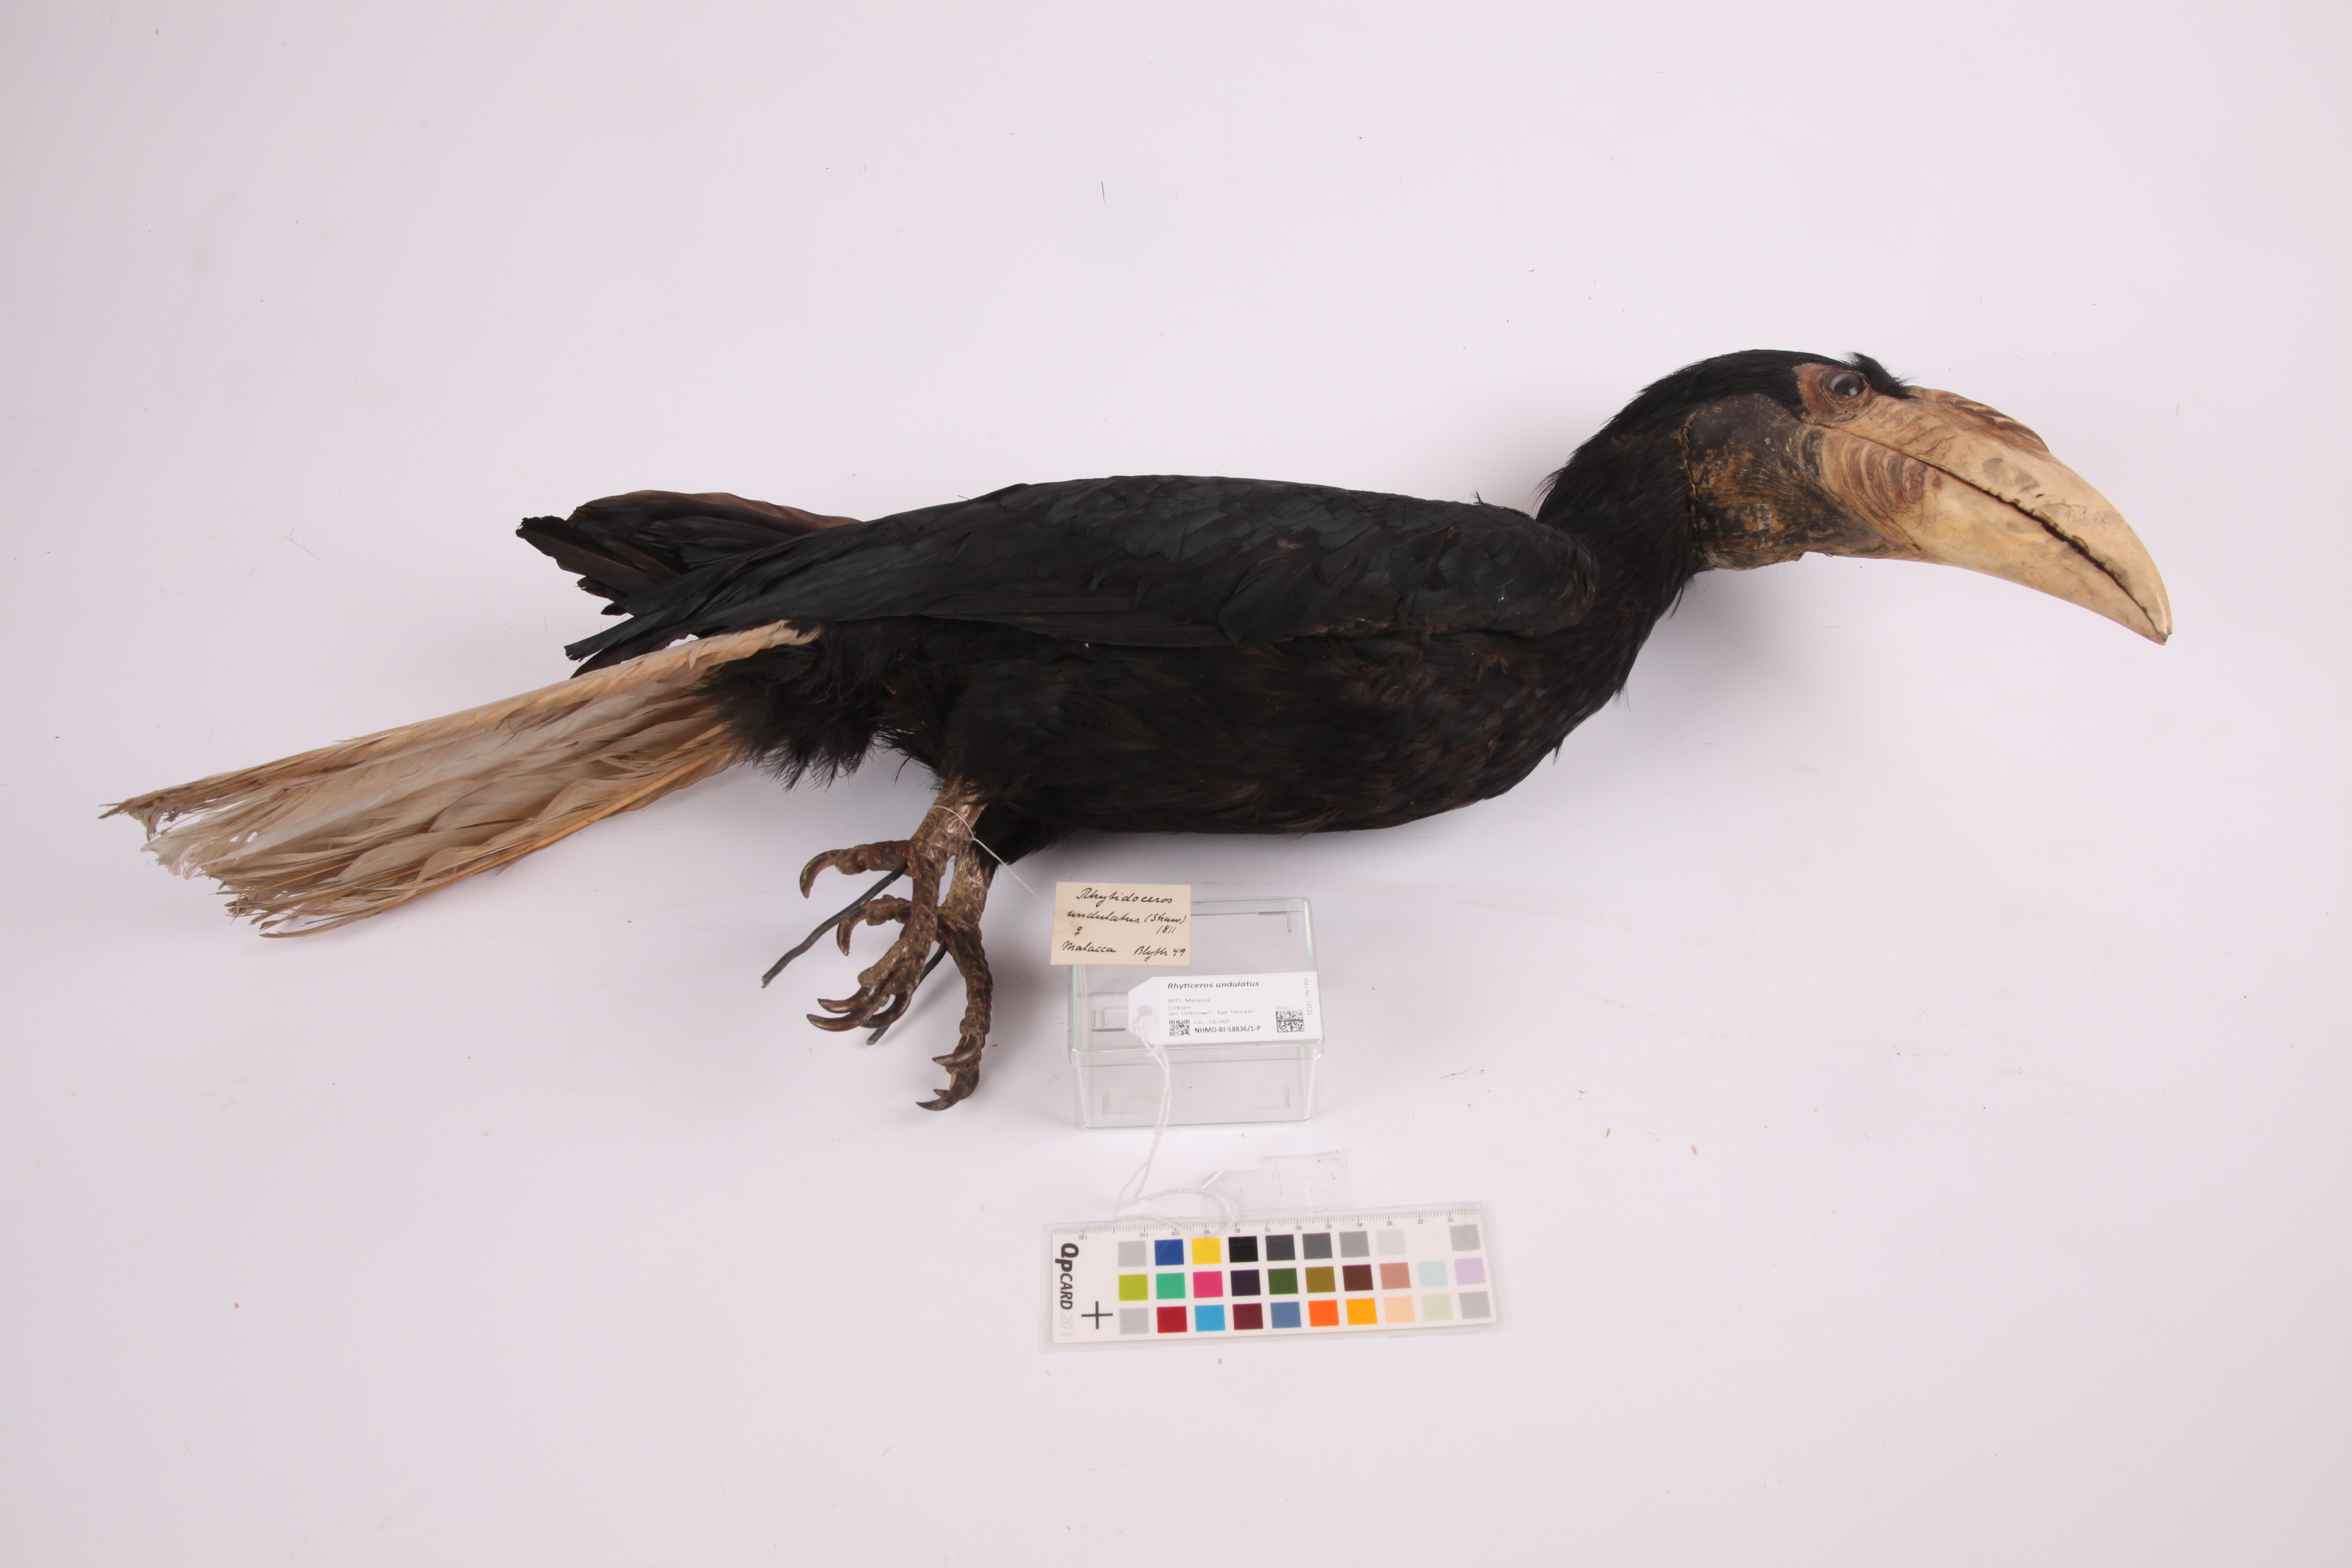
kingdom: Animalia
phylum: Chordata
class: Aves
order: Bucerotiformes
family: Bucerotidae
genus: Rhyticeros
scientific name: Rhyticeros undulatus
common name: Wreathed hornbill
